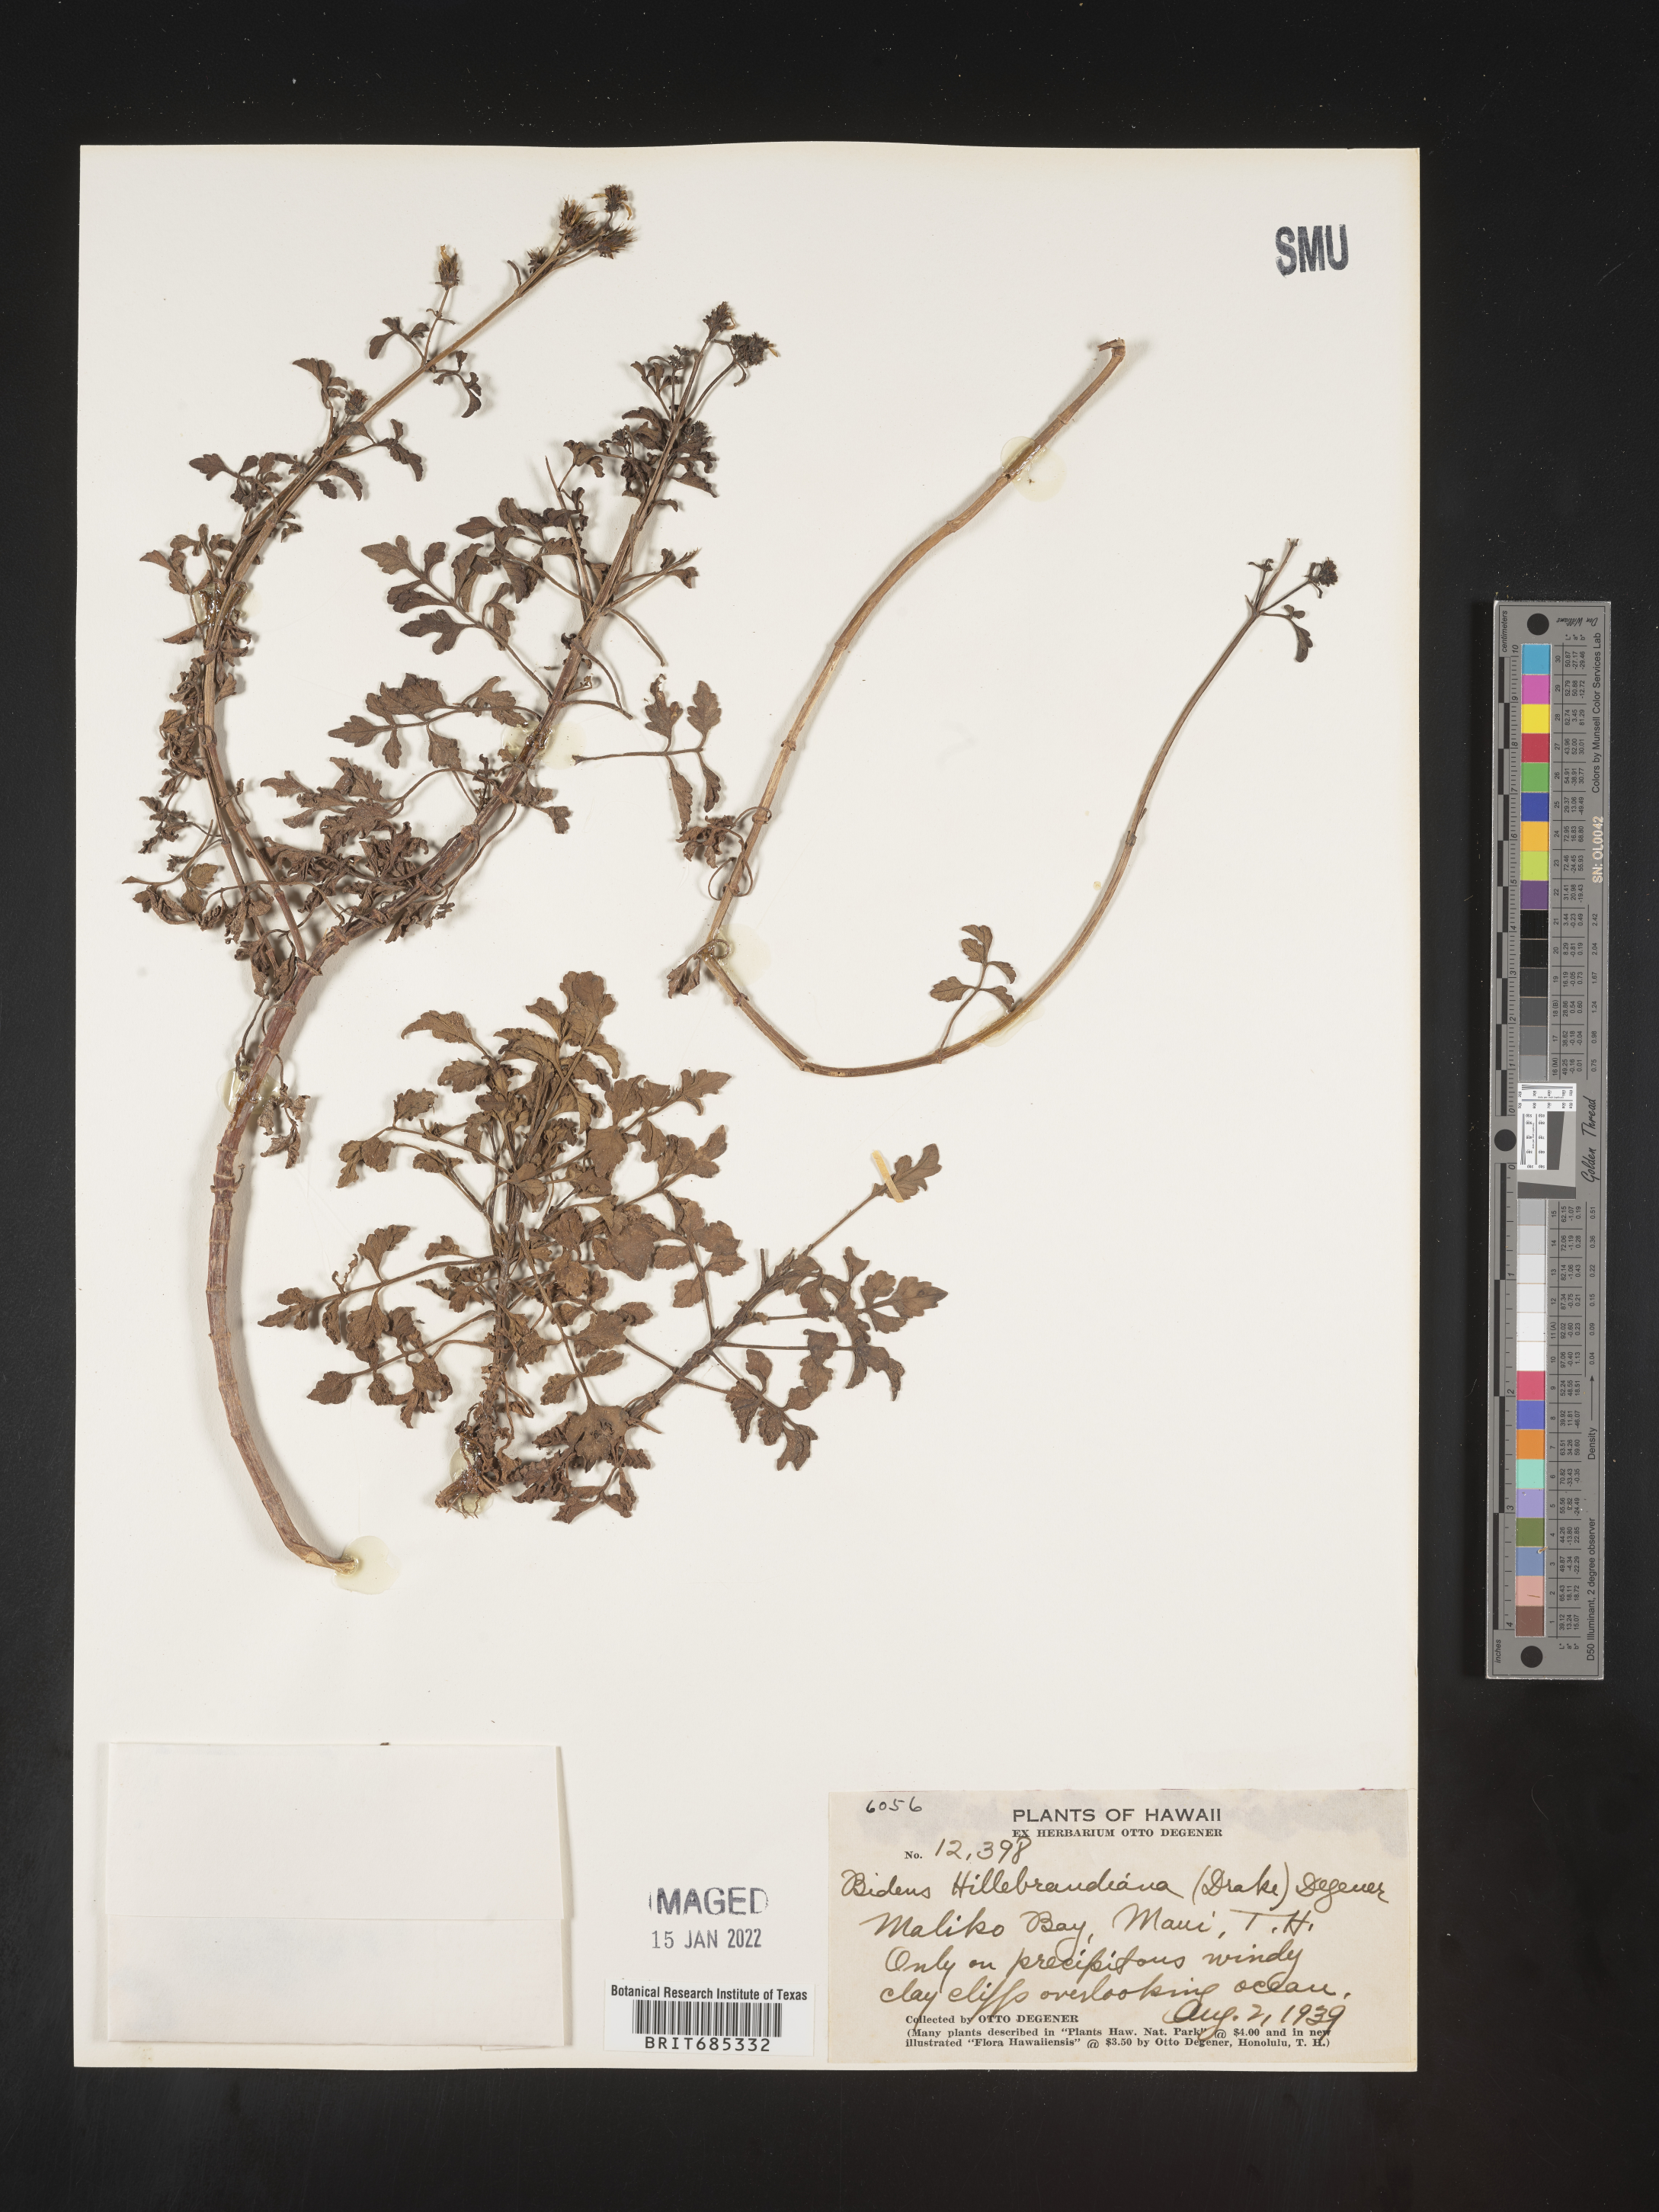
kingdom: Plantae
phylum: Tracheophyta
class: Magnoliopsida
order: Asterales
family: Asteraceae
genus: Bidens
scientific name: Bidens
